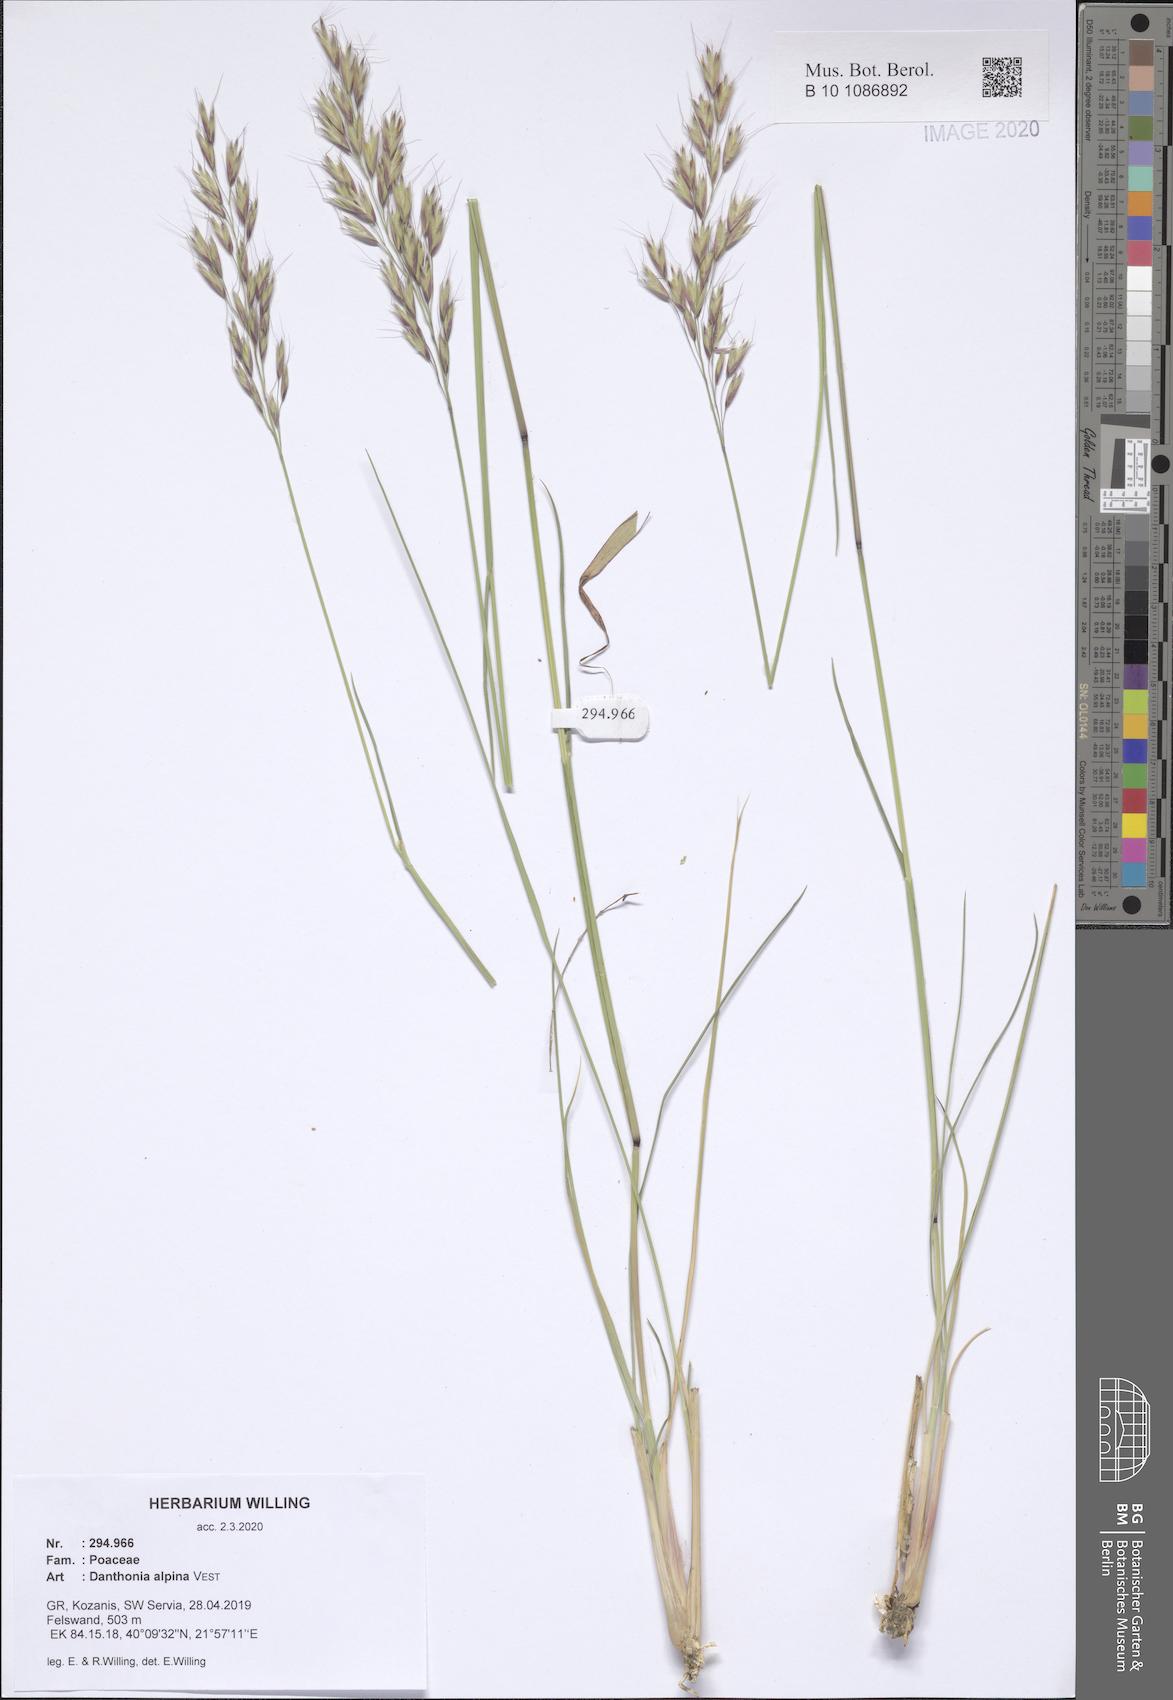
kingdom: Plantae
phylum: Tracheophyta
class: Liliopsida
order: Poales
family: Poaceae
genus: Danthonia
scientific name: Danthonia alpina
